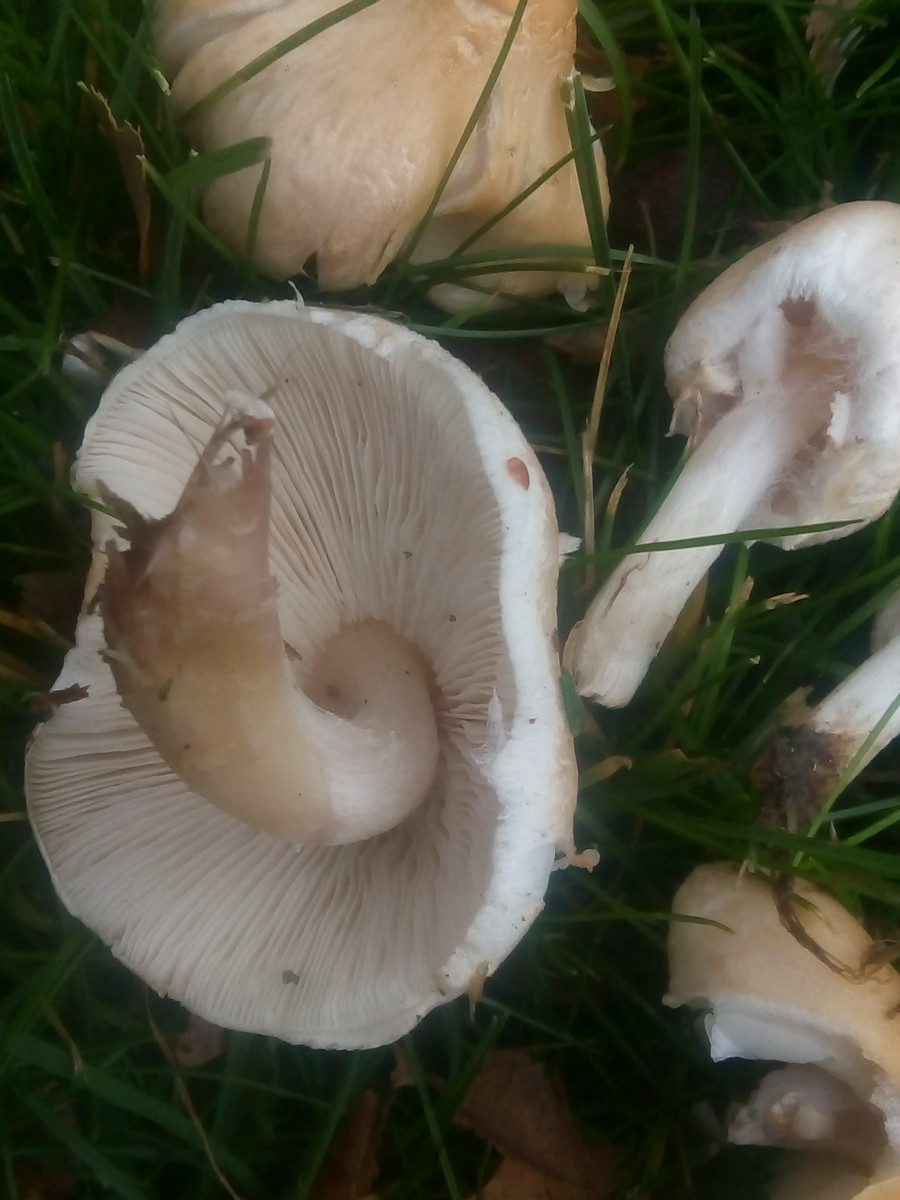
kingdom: Fungi
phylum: Basidiomycota
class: Agaricomycetes
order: Agaricales
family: Agaricaceae
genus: Lepiota
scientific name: Lepiota cristata
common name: stinkende parasolhat
